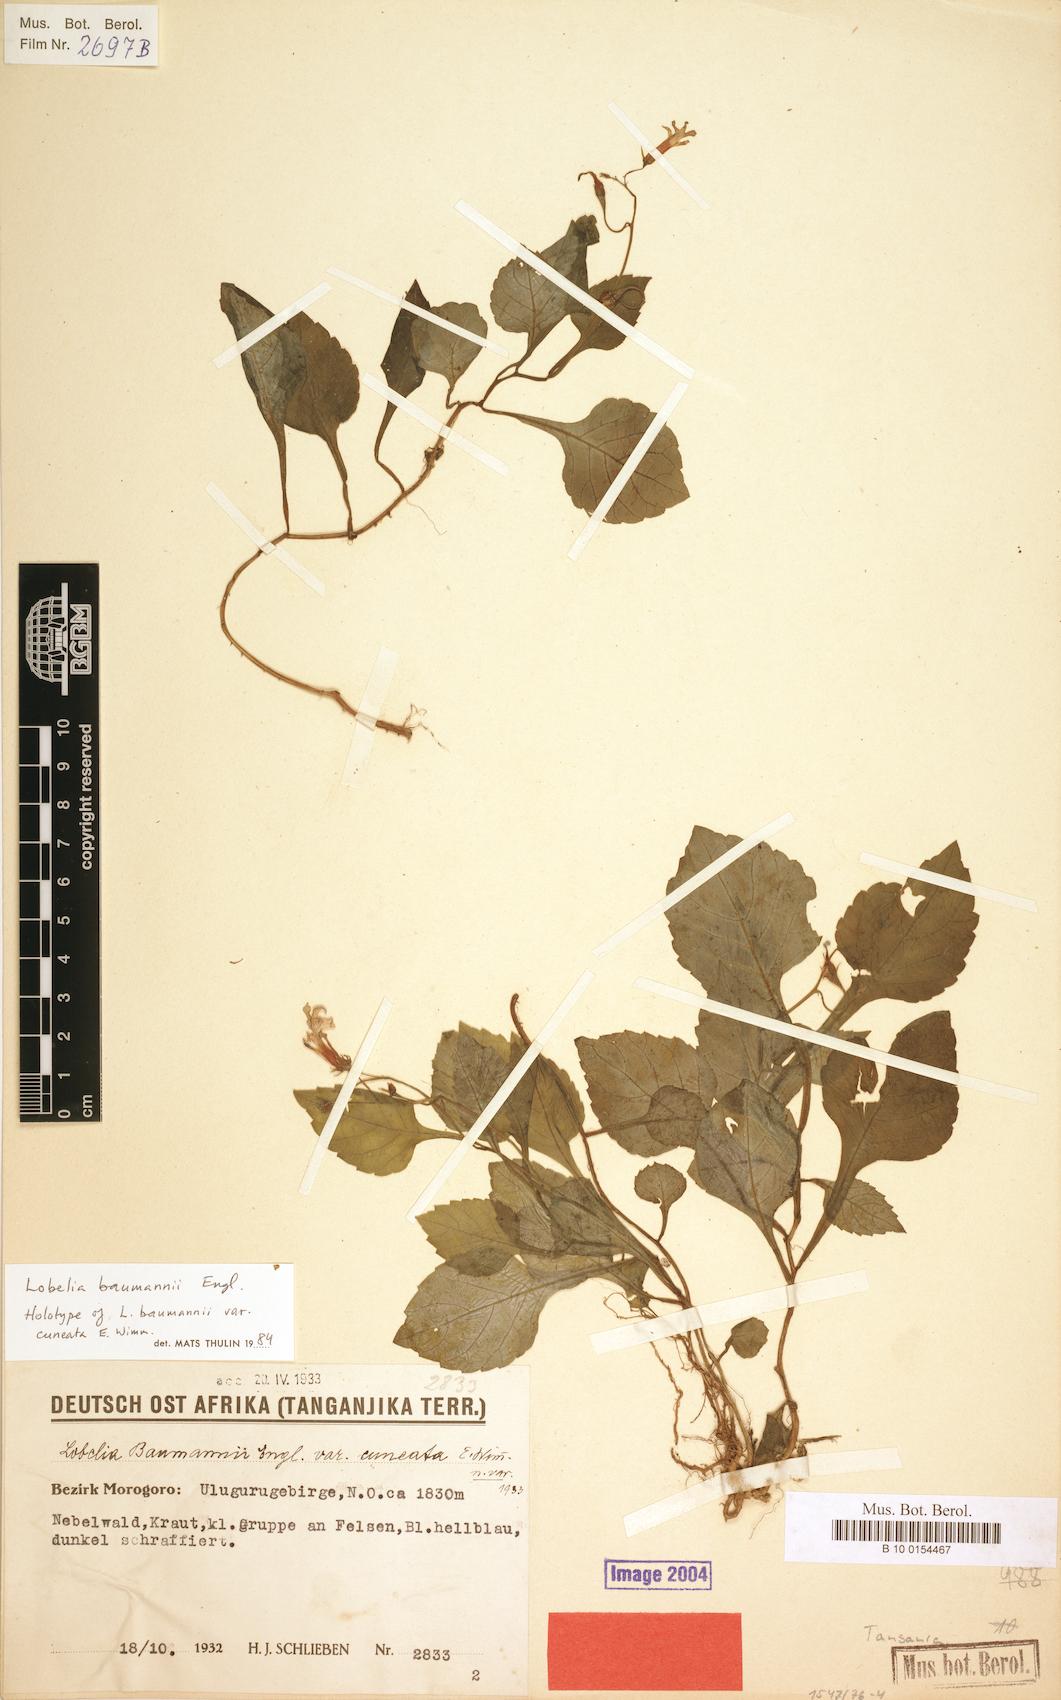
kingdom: Plantae
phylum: Tracheophyta
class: Magnoliopsida
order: Asterales
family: Campanulaceae
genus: Lobelia
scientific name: Lobelia baumannii
